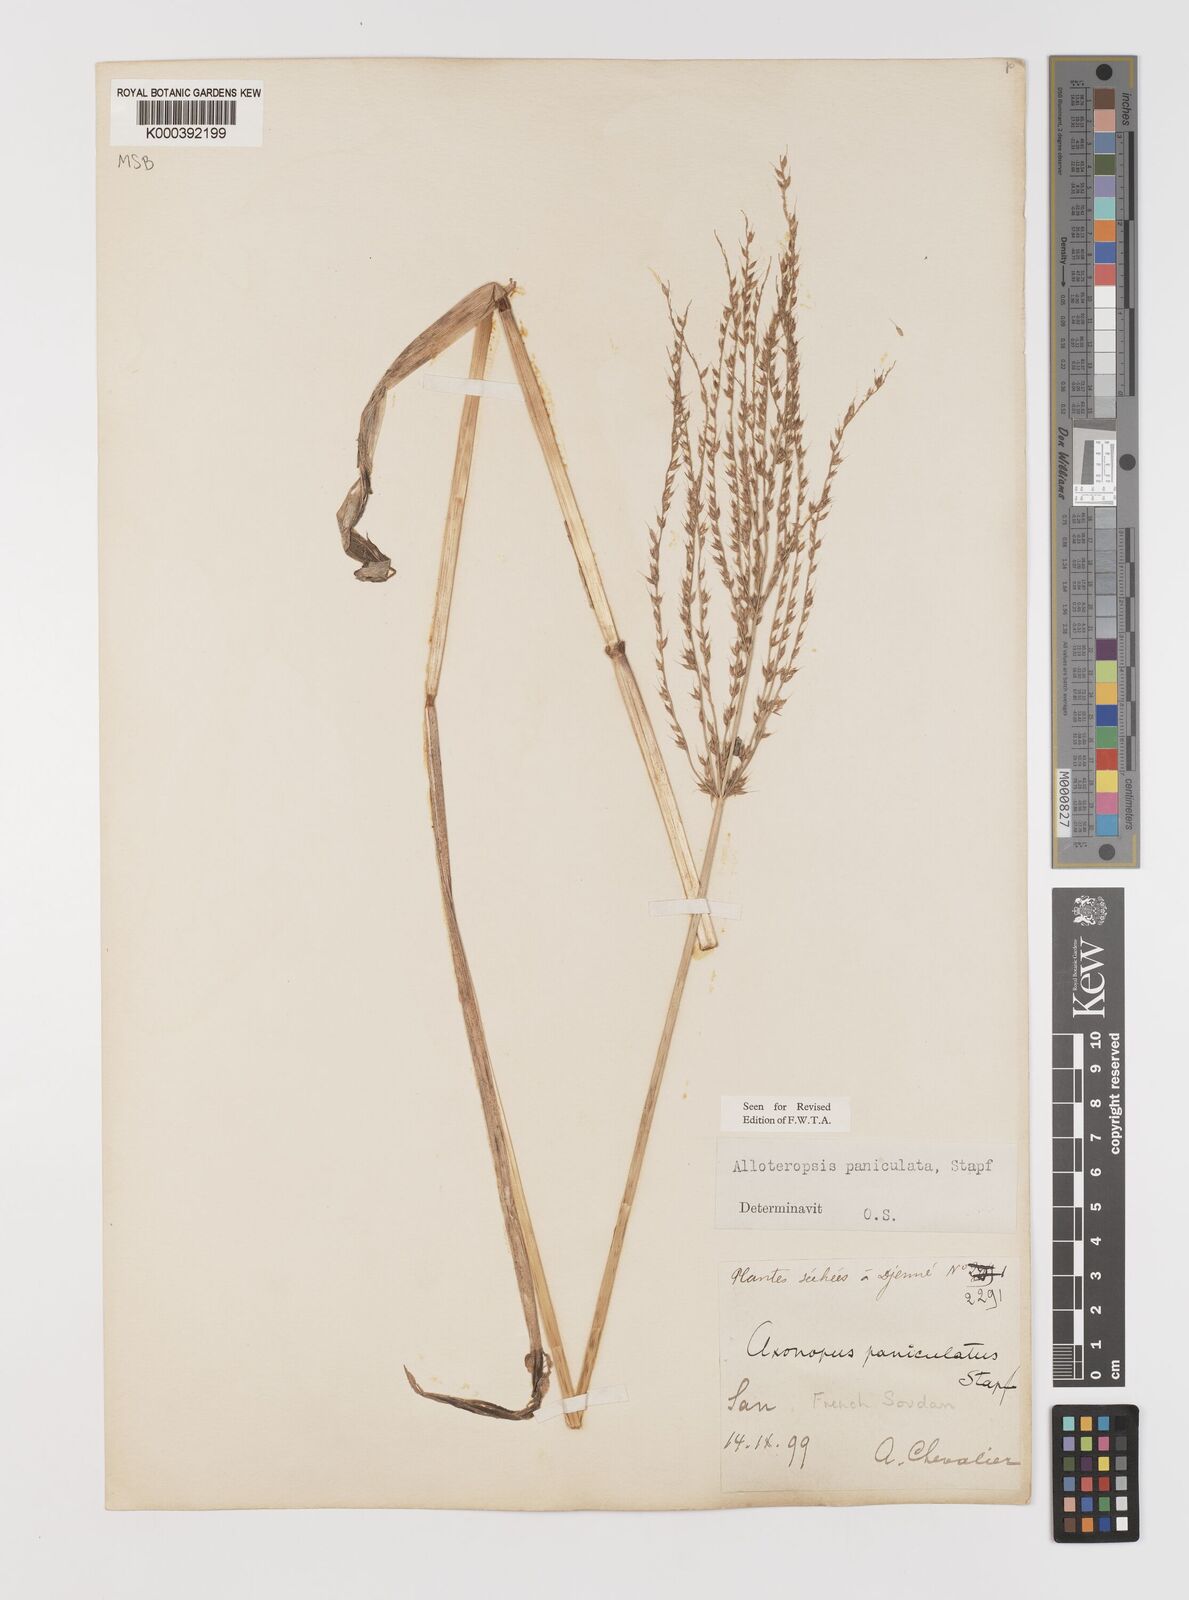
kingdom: Plantae
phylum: Tracheophyta
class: Liliopsida
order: Poales
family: Poaceae
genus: Alloteropsis
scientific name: Alloteropsis paniculata
